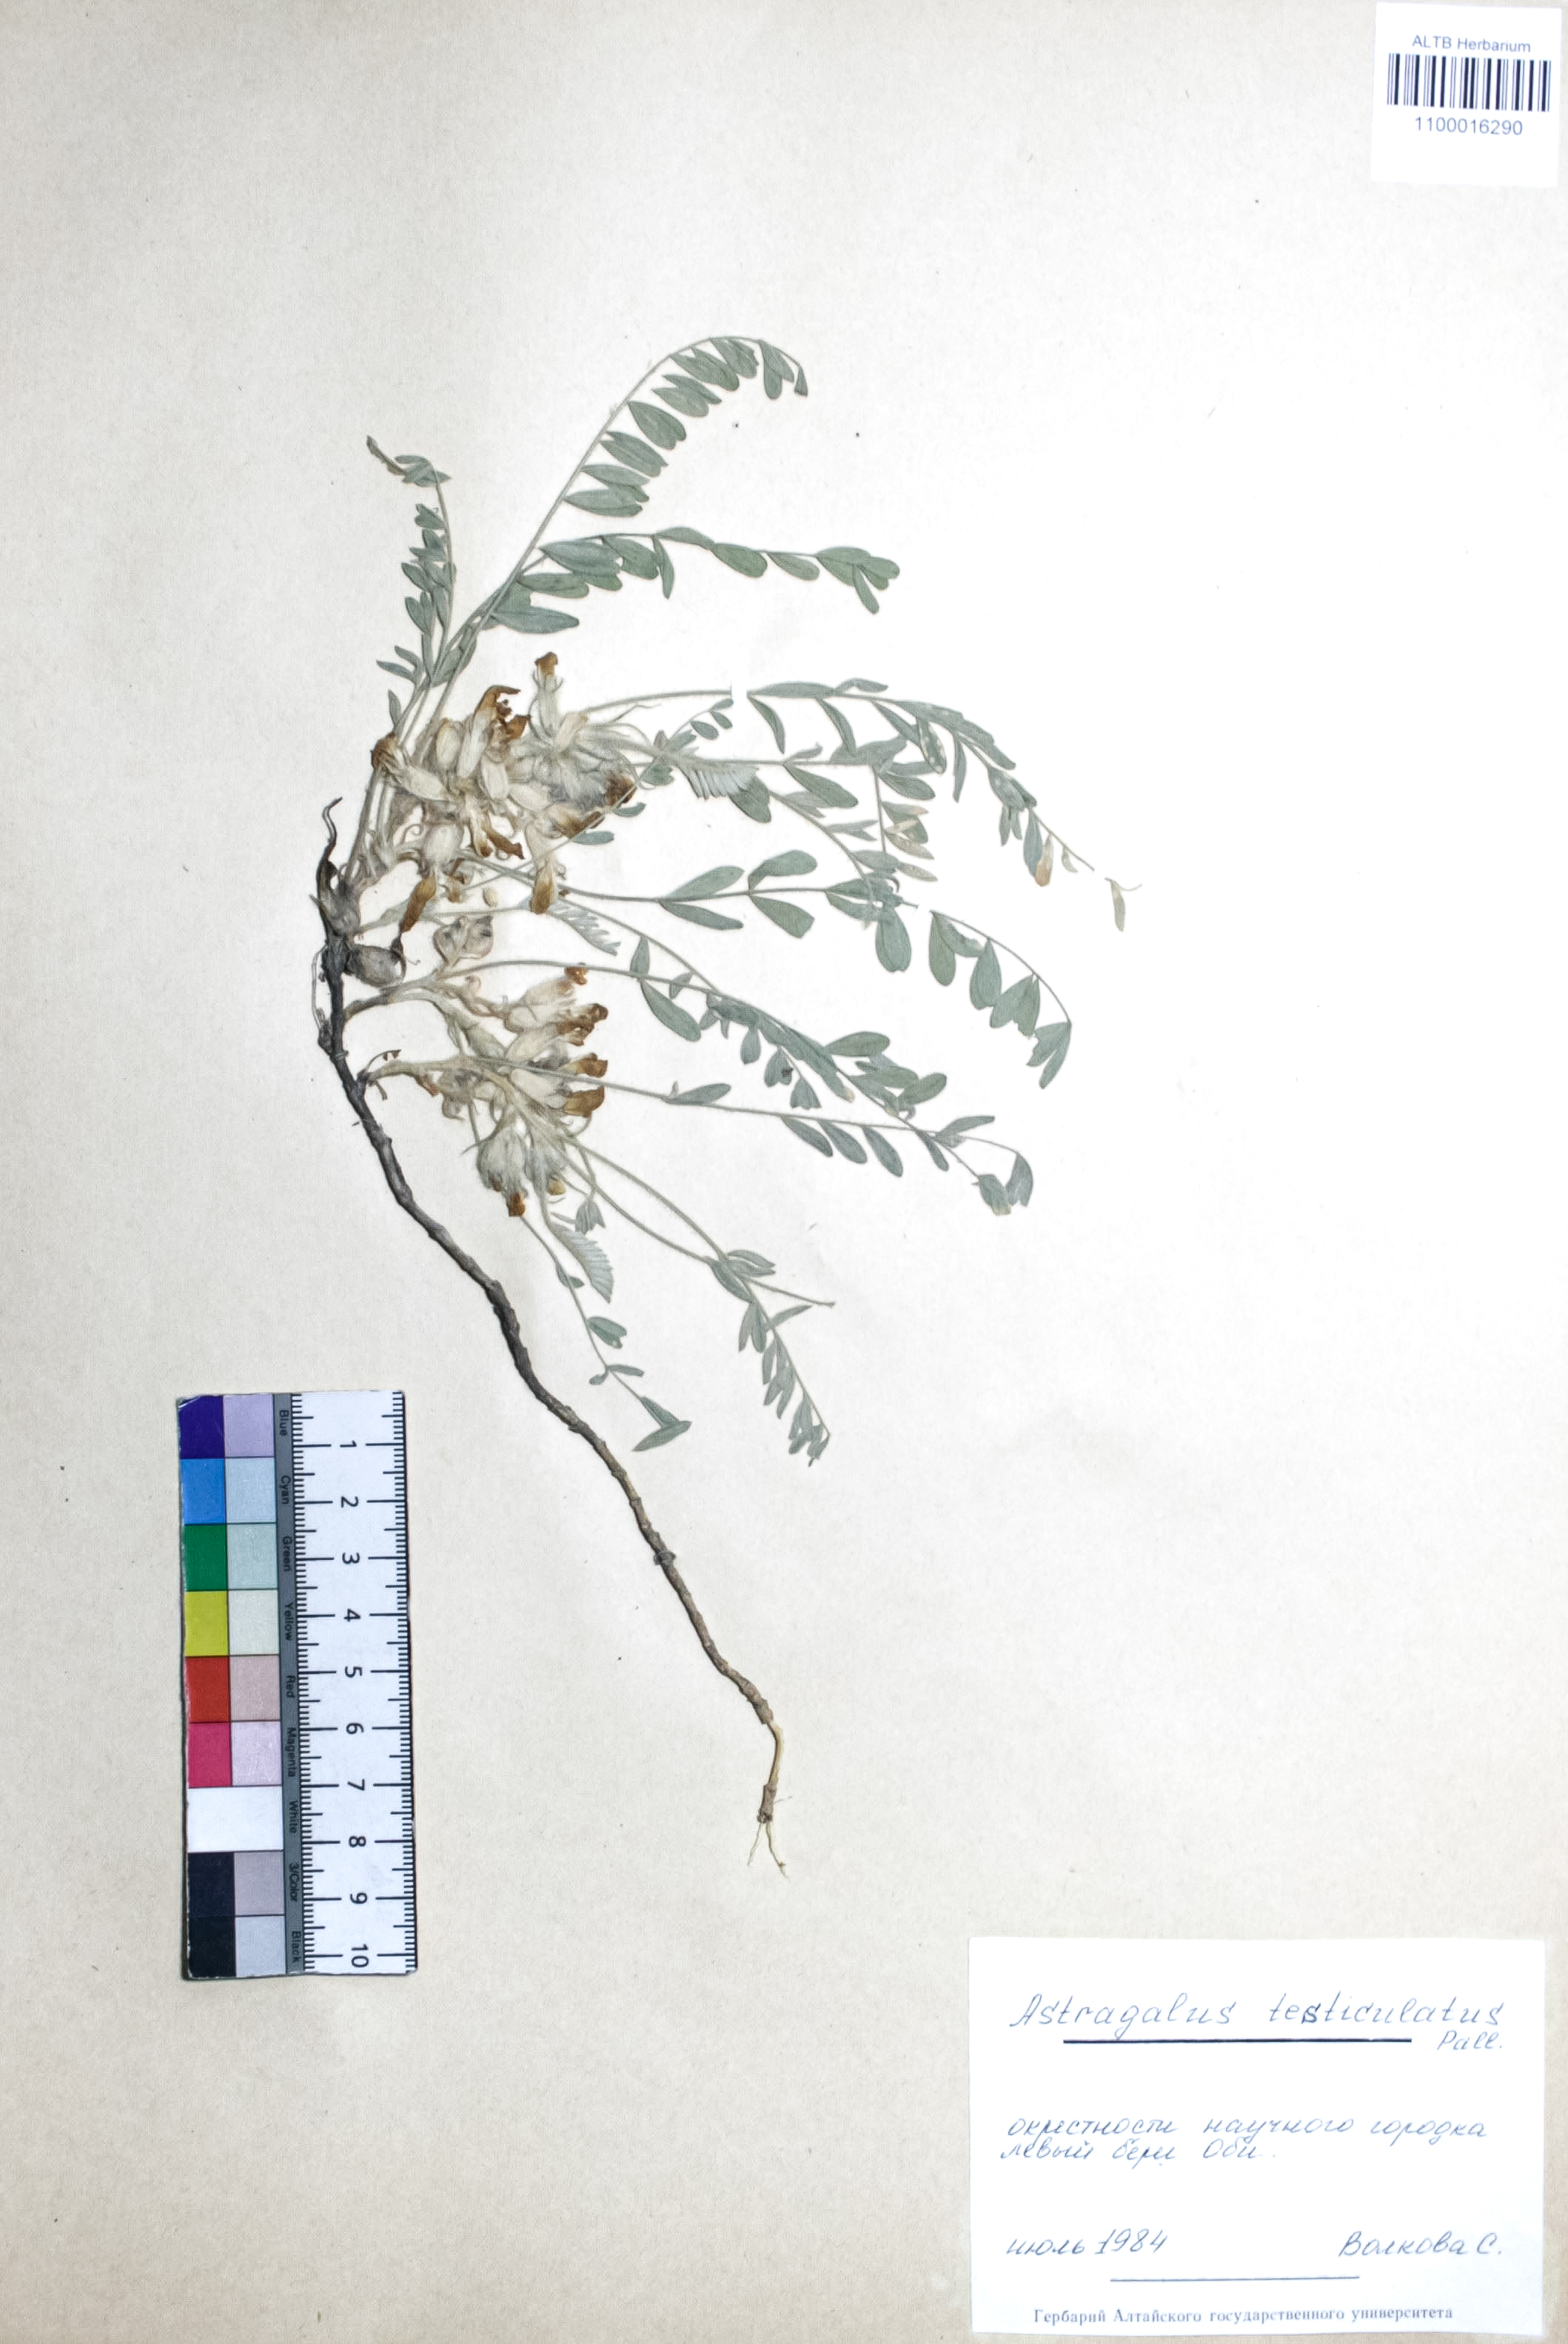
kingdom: Plantae
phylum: Tracheophyta
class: Magnoliopsida
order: Fabales
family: Fabaceae
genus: Astragalus
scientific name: Astragalus testiculatus
